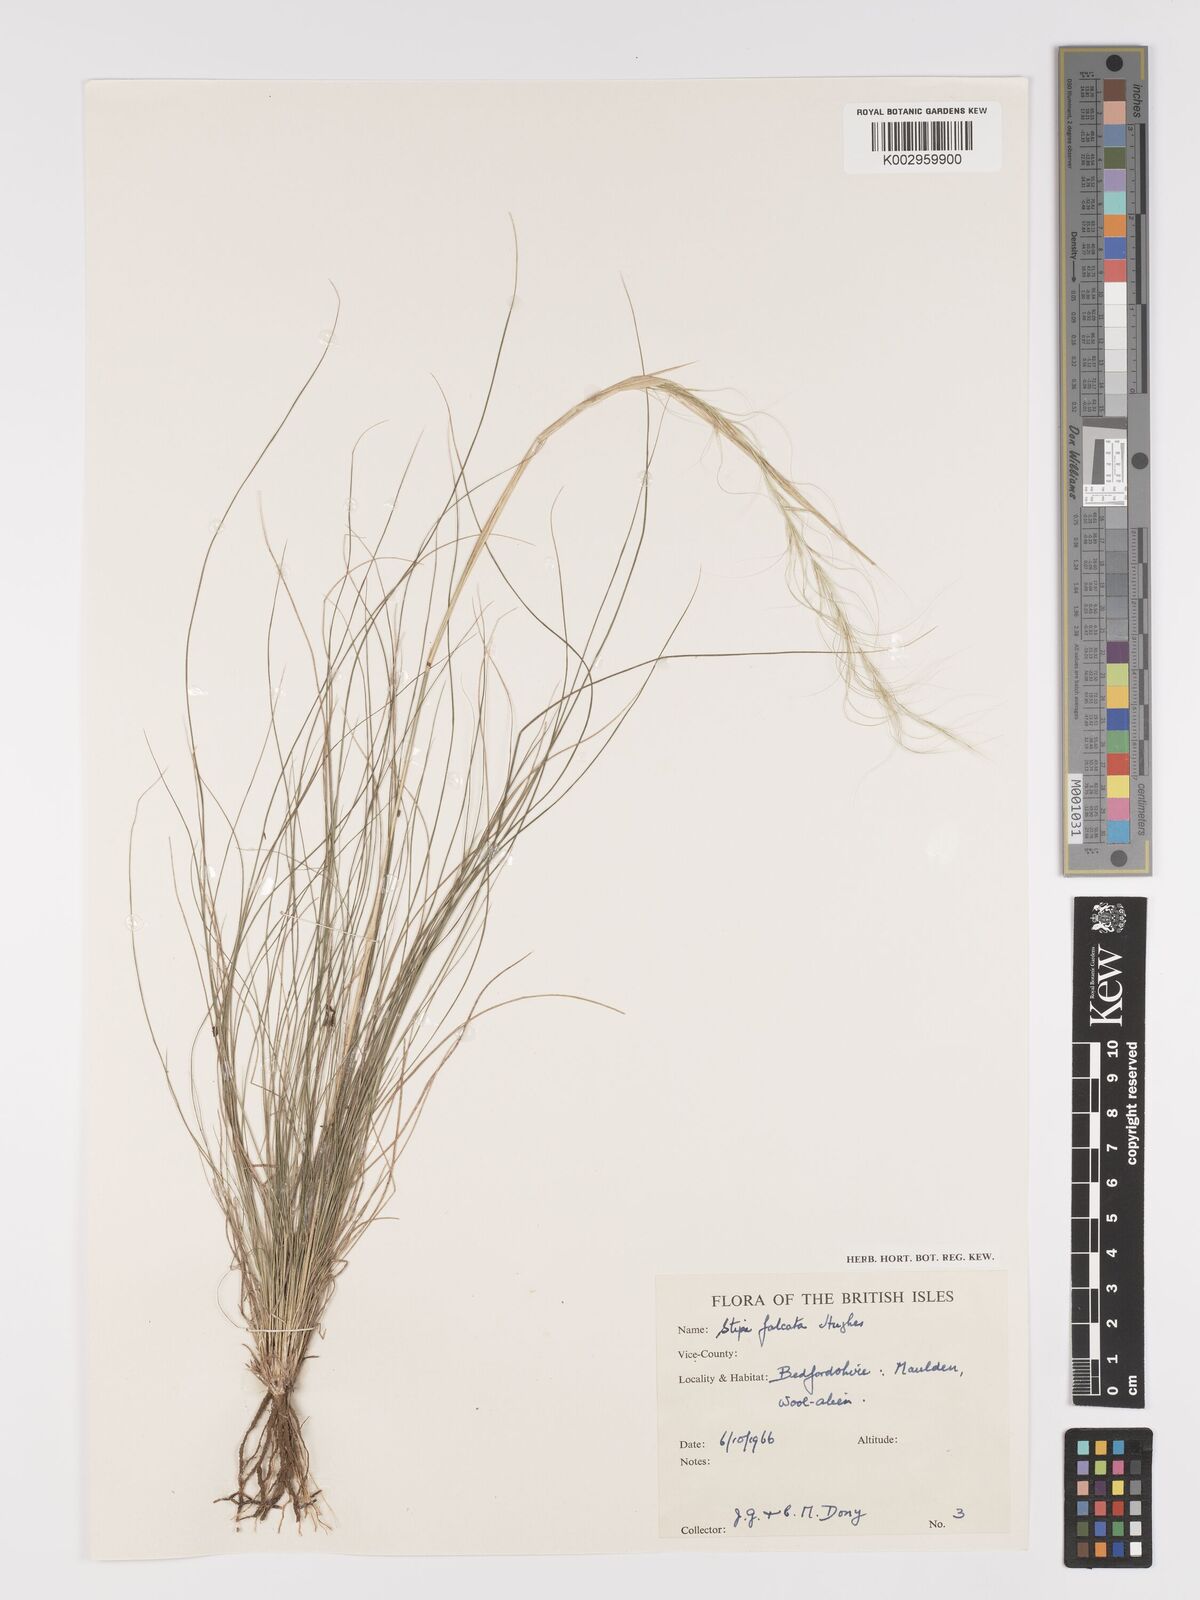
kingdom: Plantae
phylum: Tracheophyta
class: Liliopsida
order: Poales
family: Poaceae
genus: Austrostipa
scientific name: Austrostipa scabra
